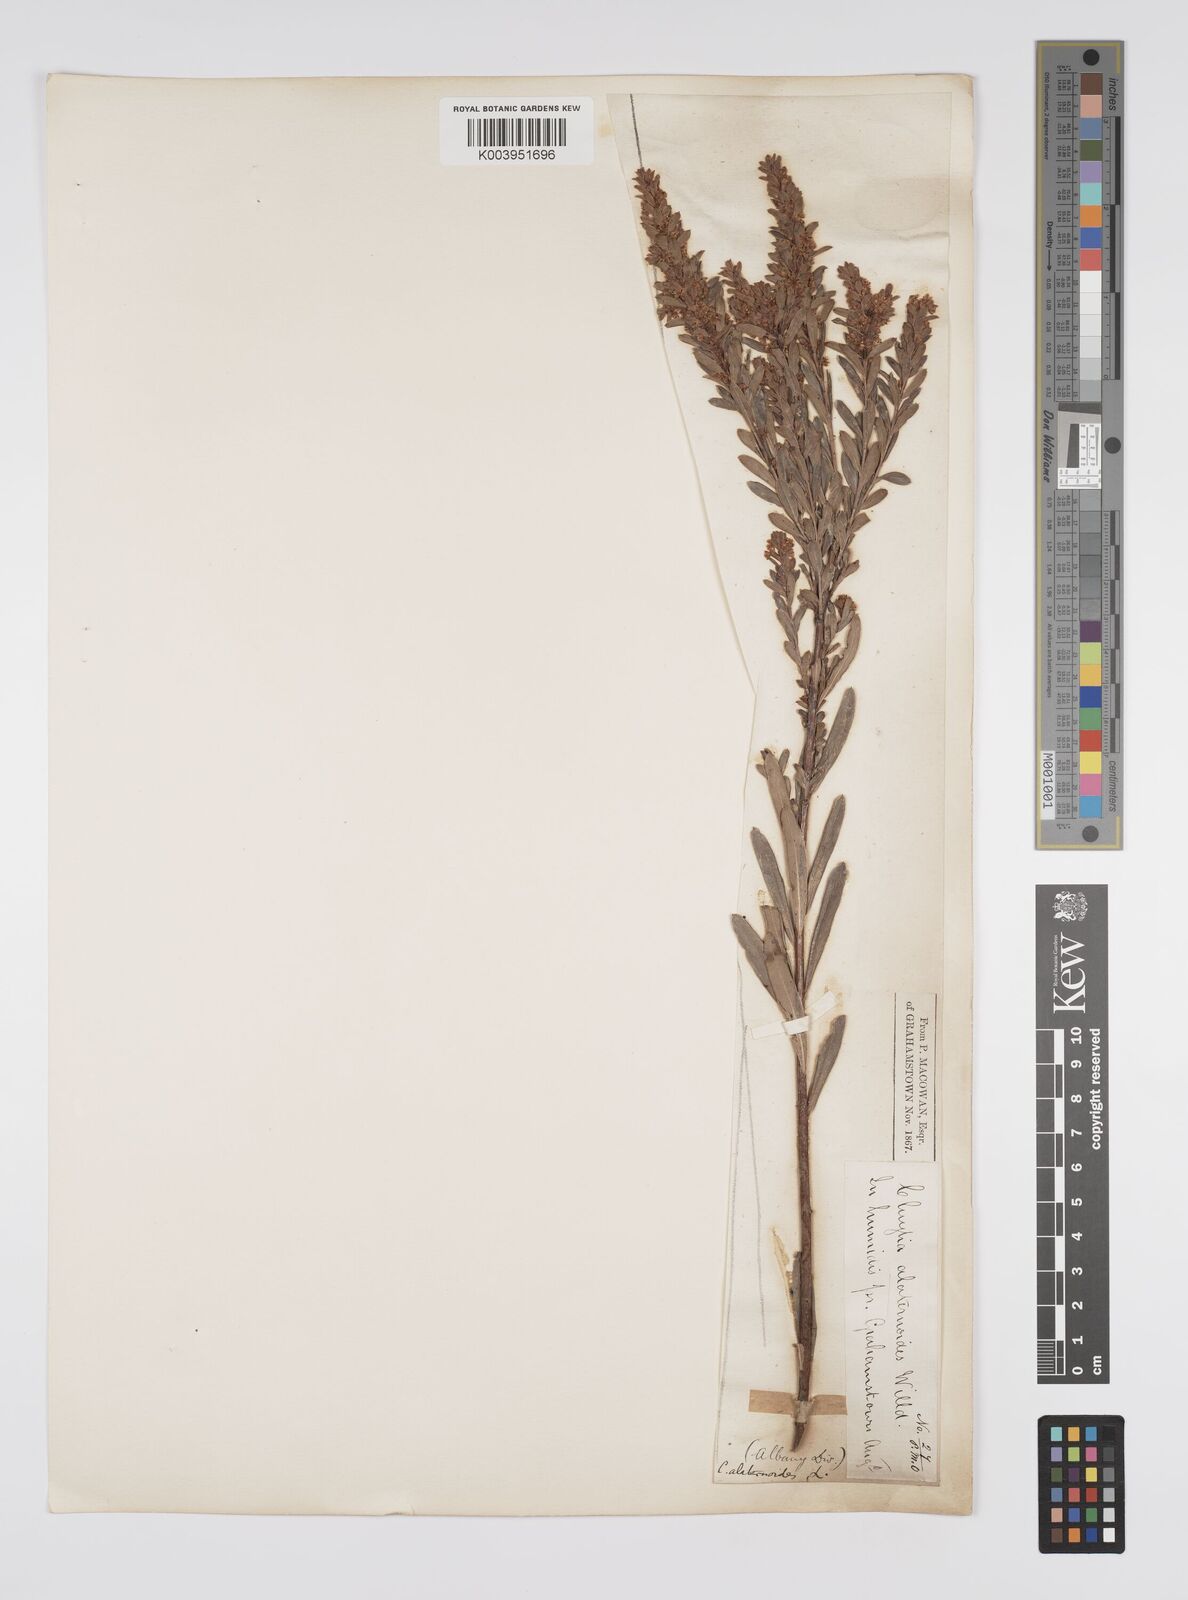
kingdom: Plantae
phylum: Tracheophyta
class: Magnoliopsida
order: Malpighiales
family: Peraceae
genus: Clutia
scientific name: Clutia alaternoides
